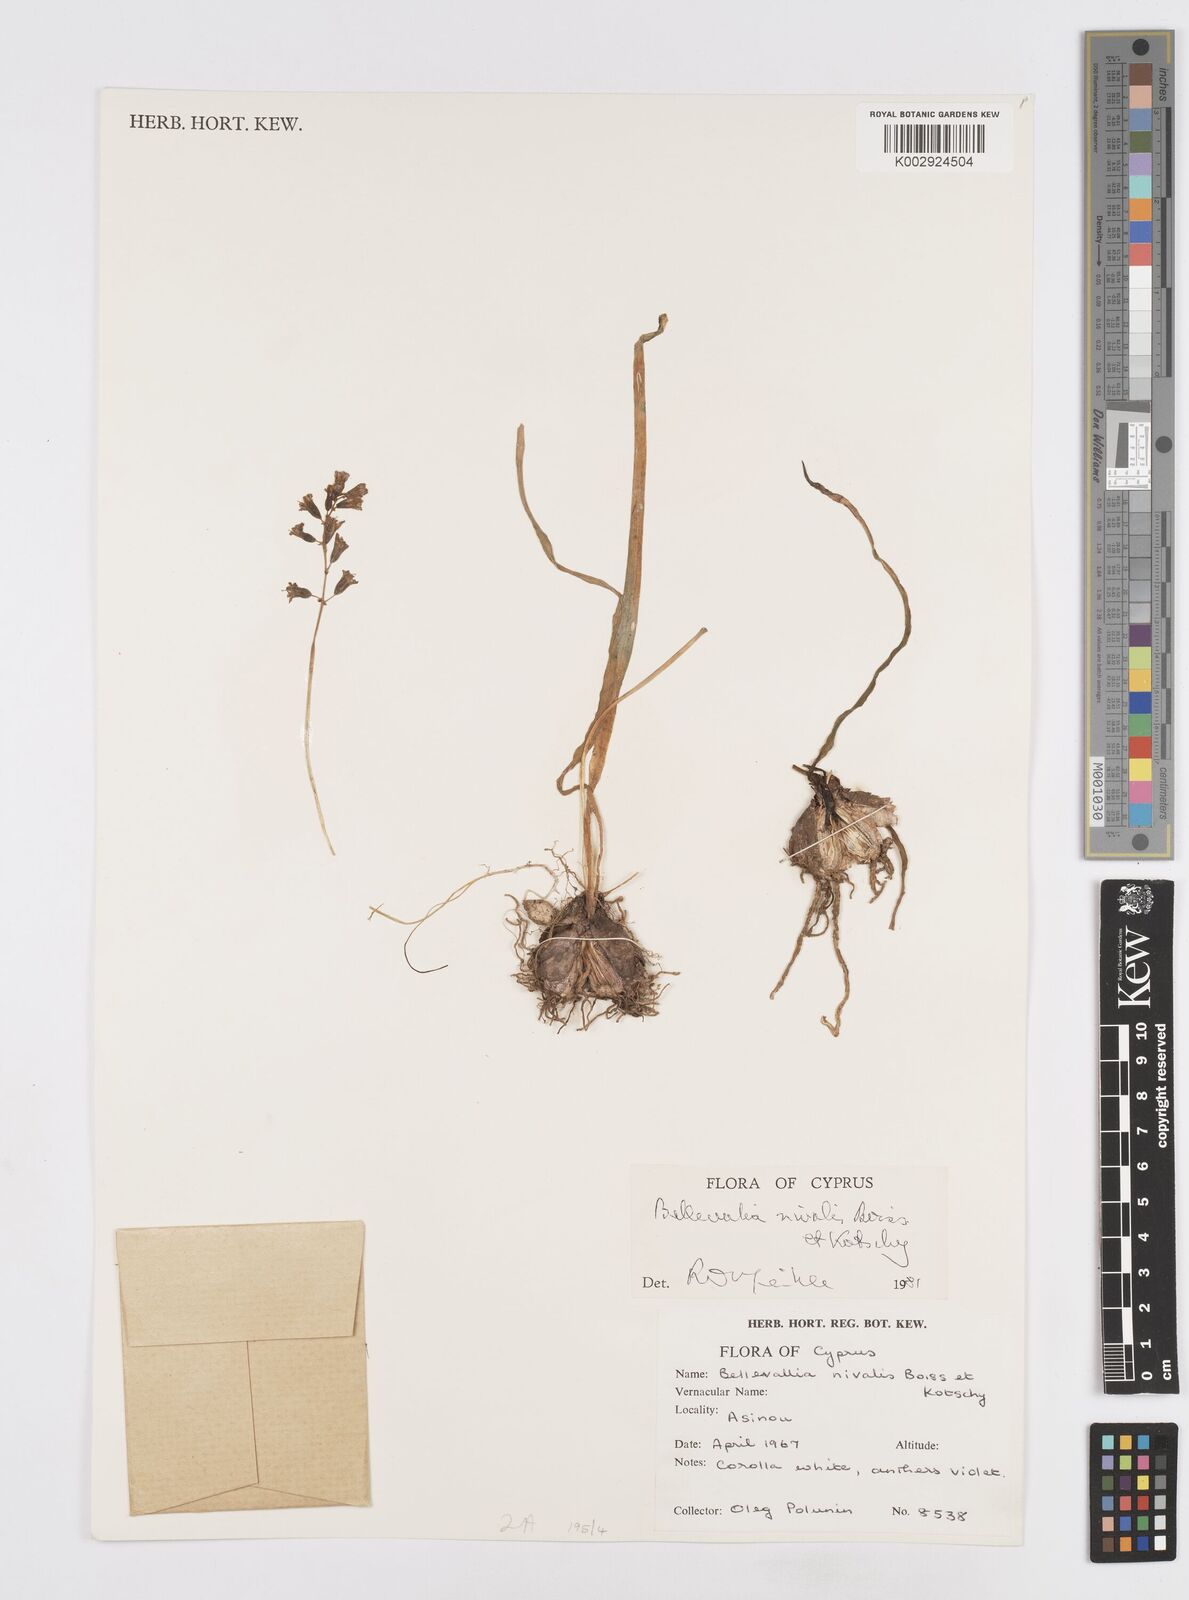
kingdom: Plantae
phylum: Tracheophyta
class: Liliopsida
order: Asparagales
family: Asparagaceae
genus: Bellevalia
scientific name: Bellevalia nivalis
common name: Snow bellevalia
